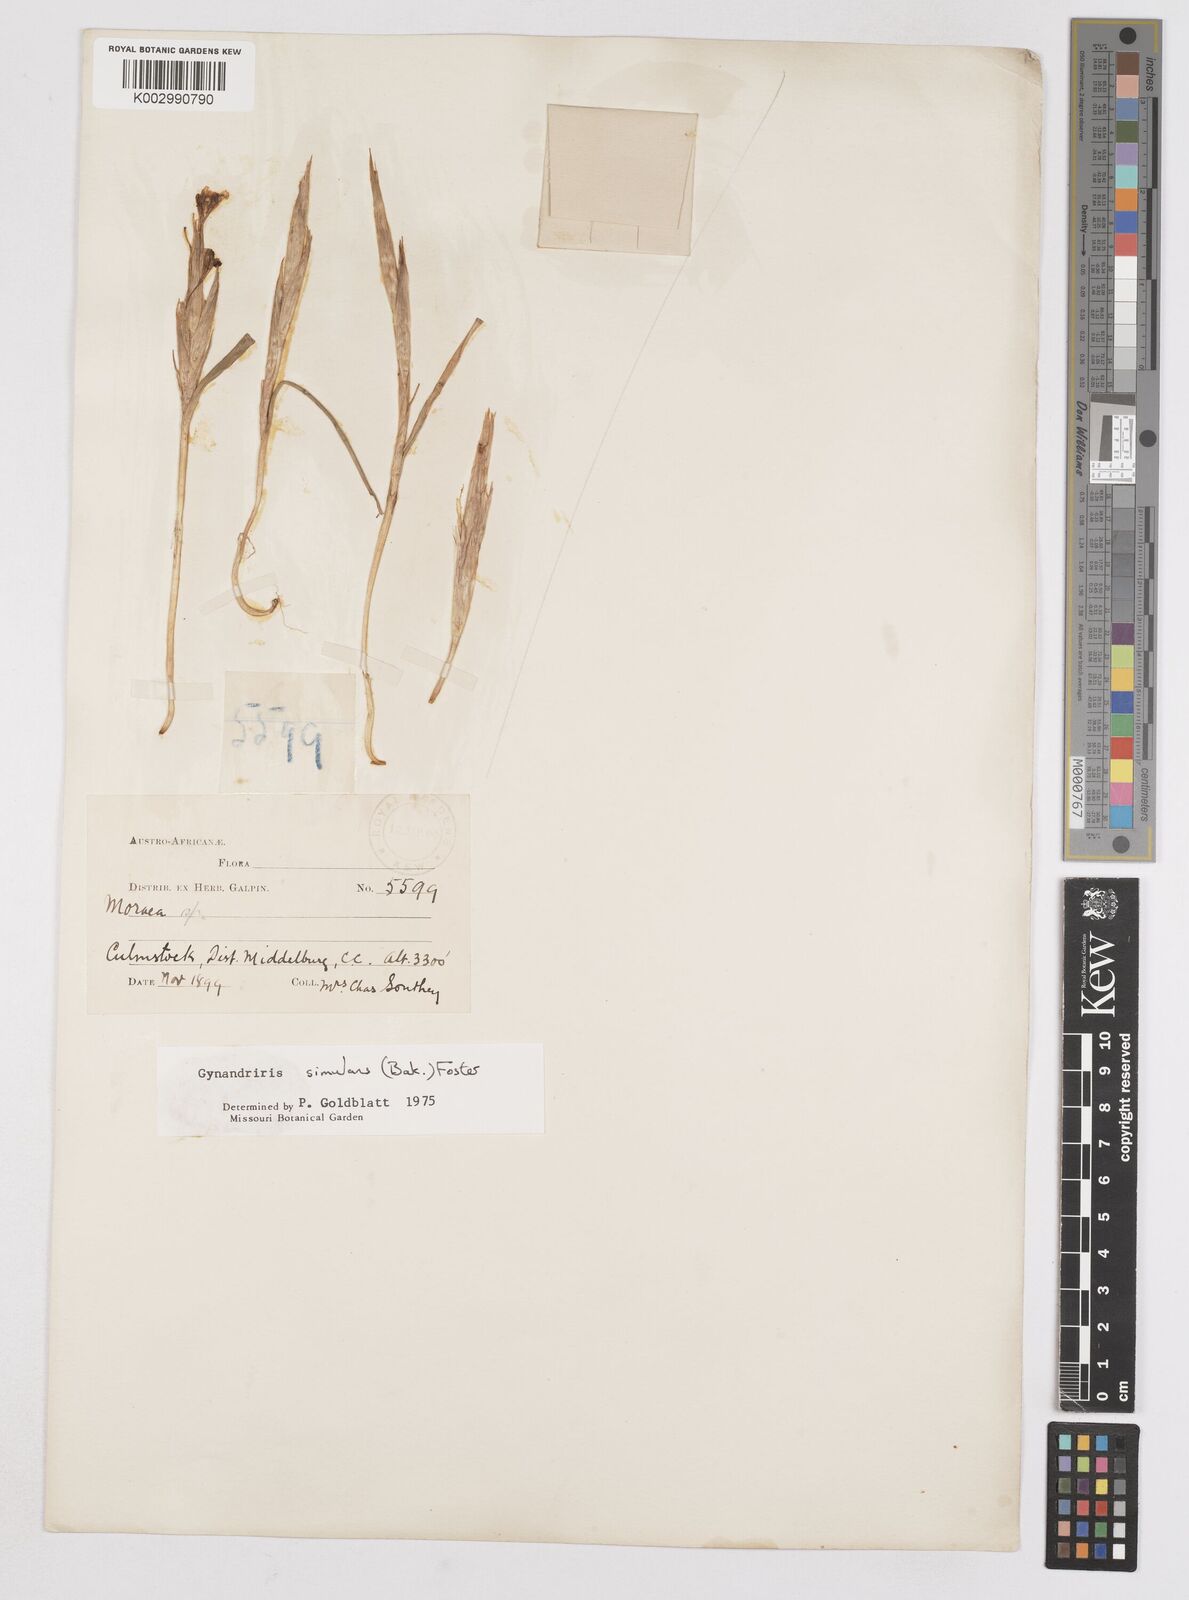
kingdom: Plantae
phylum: Tracheophyta
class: Liliopsida
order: Asparagales
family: Iridaceae
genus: Moraea
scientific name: Moraea simulans
